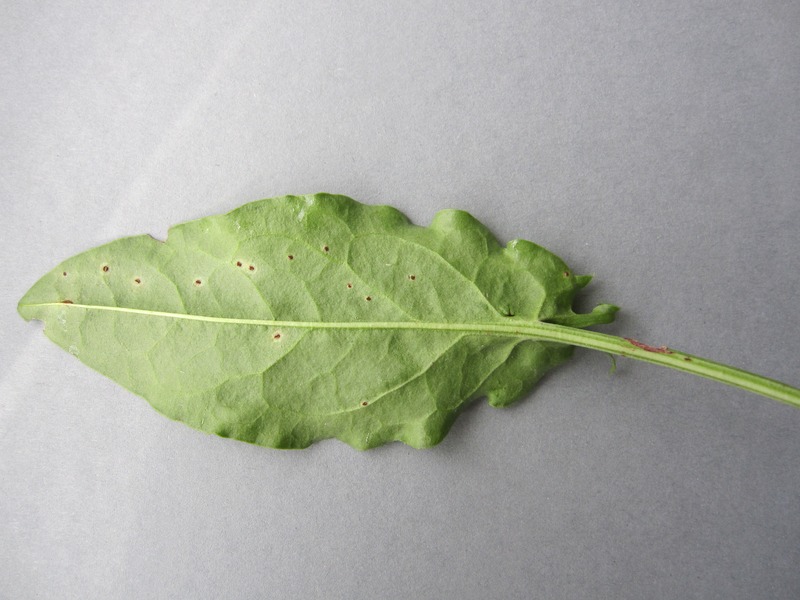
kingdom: Fungi
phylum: Basidiomycota
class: Pucciniomycetes
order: Pucciniales
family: Pucciniaceae
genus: Puccinia
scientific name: Puccinia acetosae
